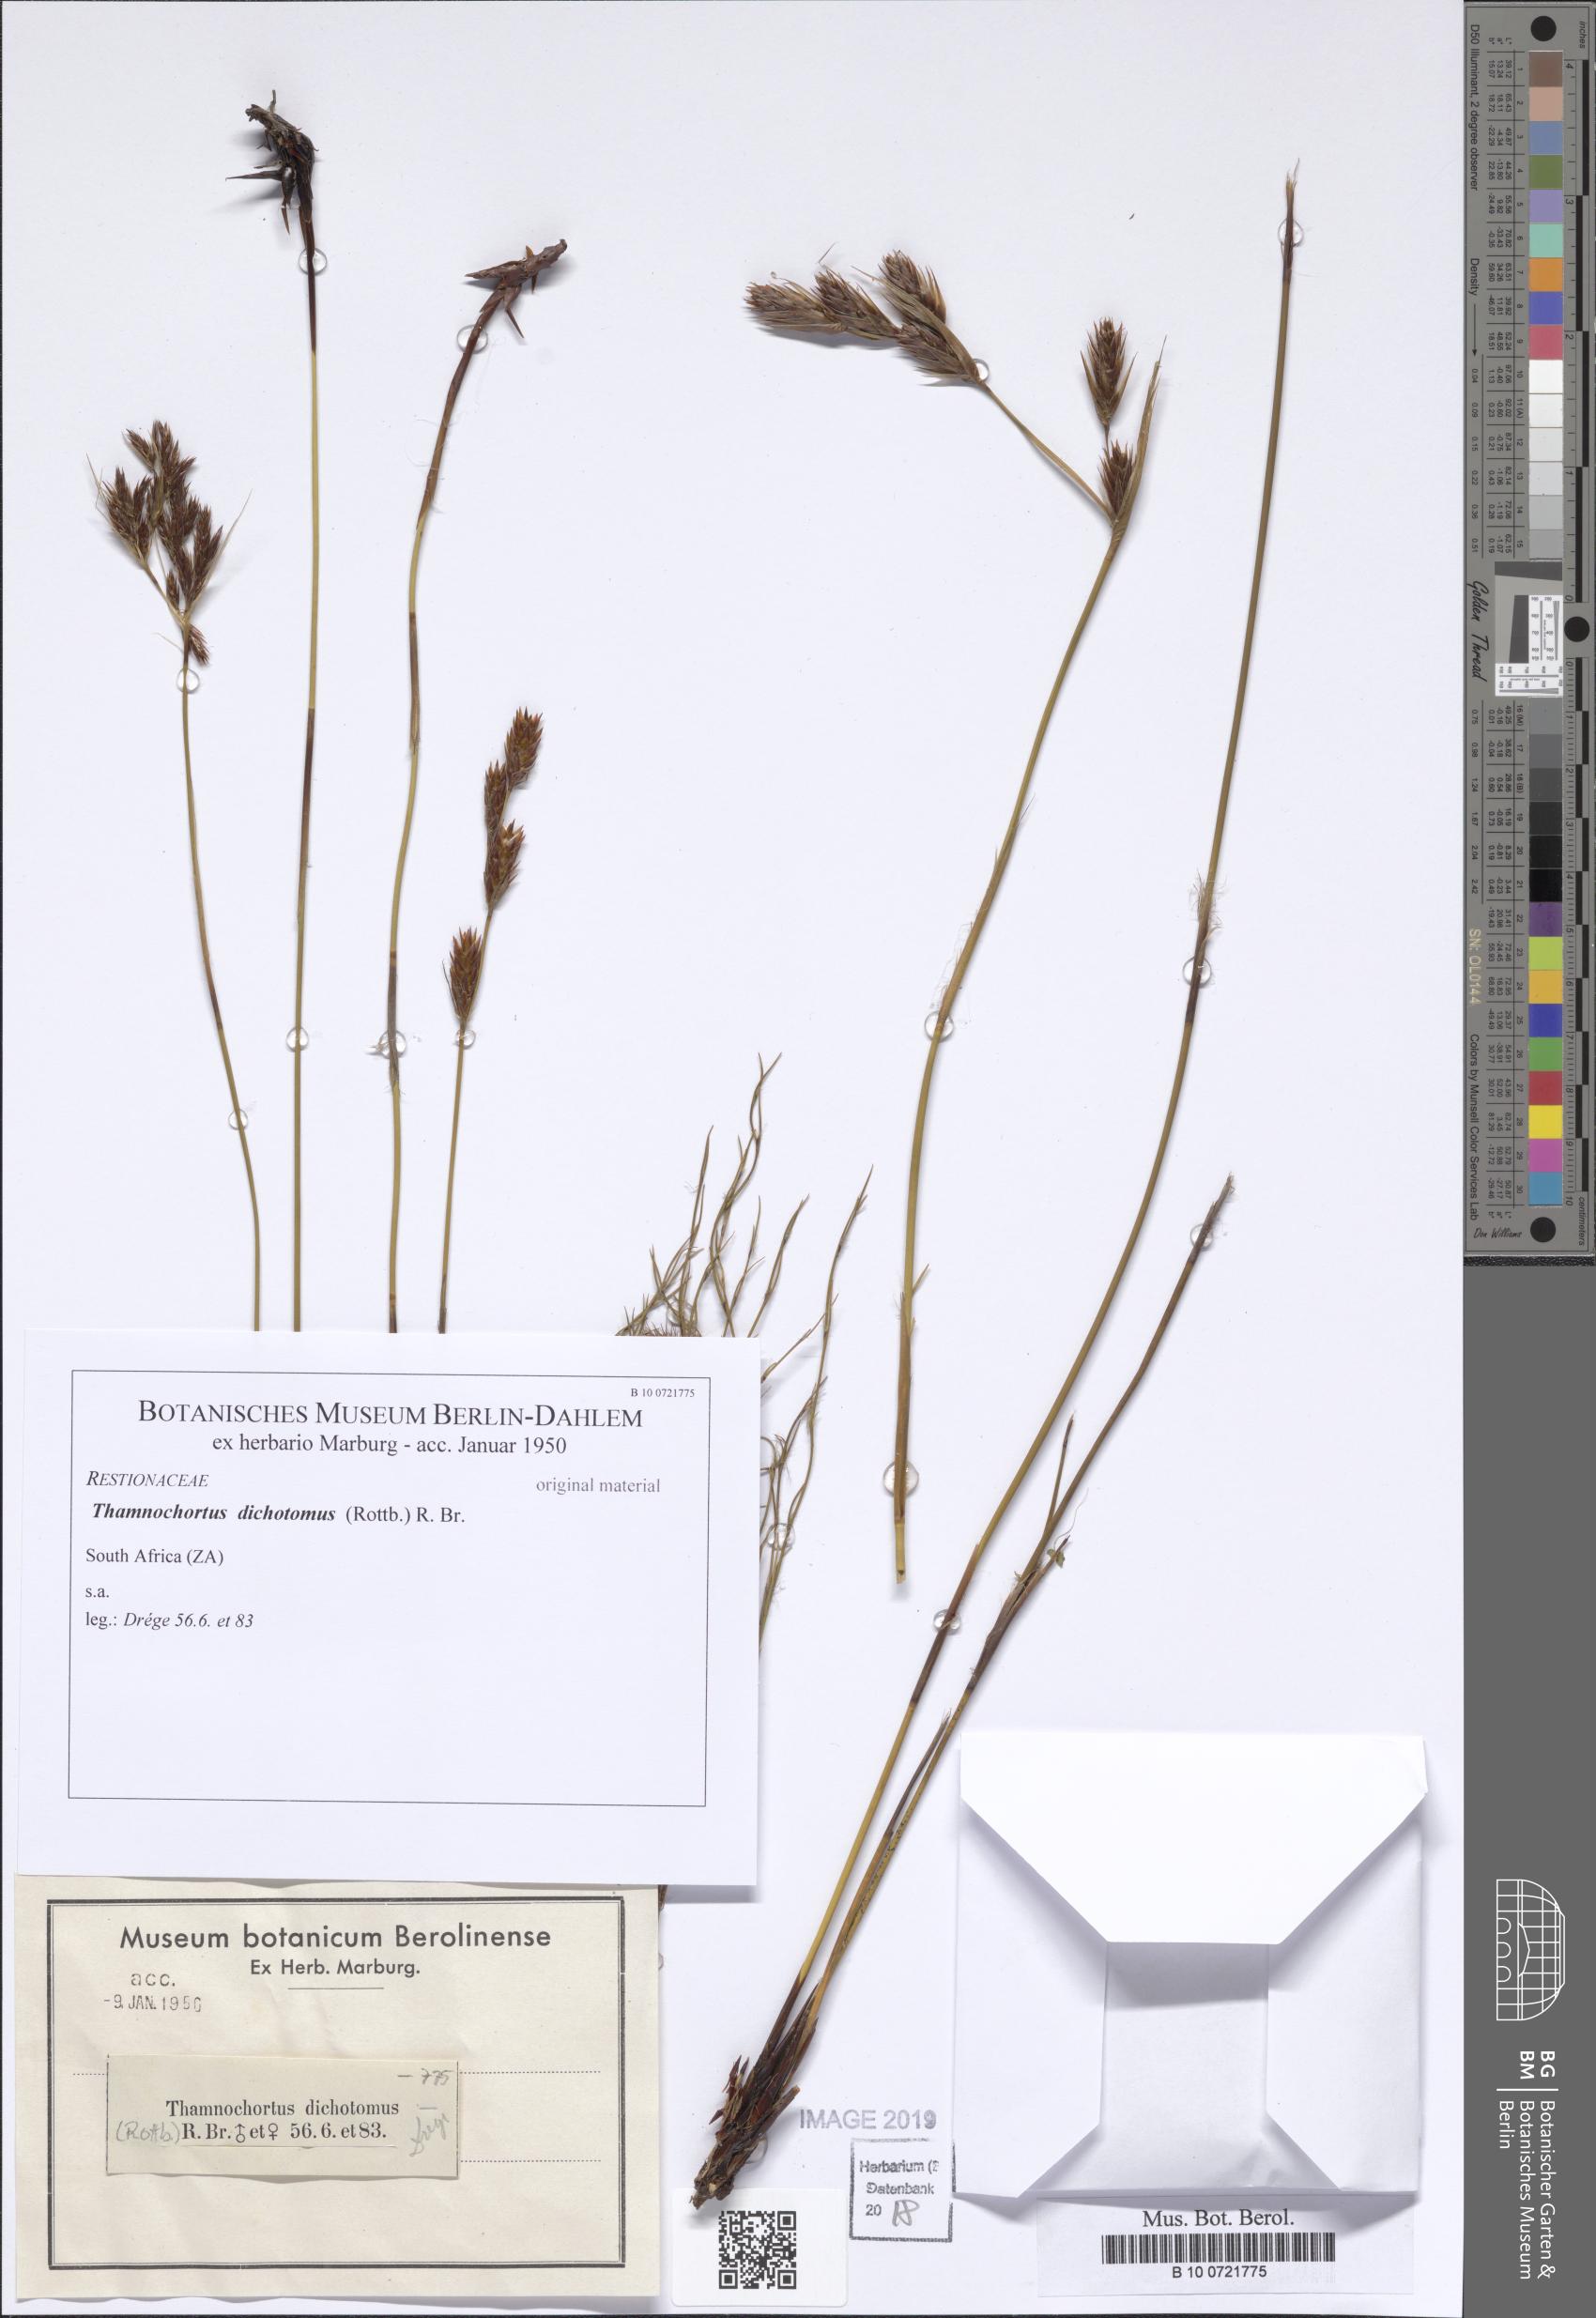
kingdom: Plantae
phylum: Tracheophyta
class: Liliopsida
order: Poales
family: Restionaceae
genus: Restio
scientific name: Restio capensis
